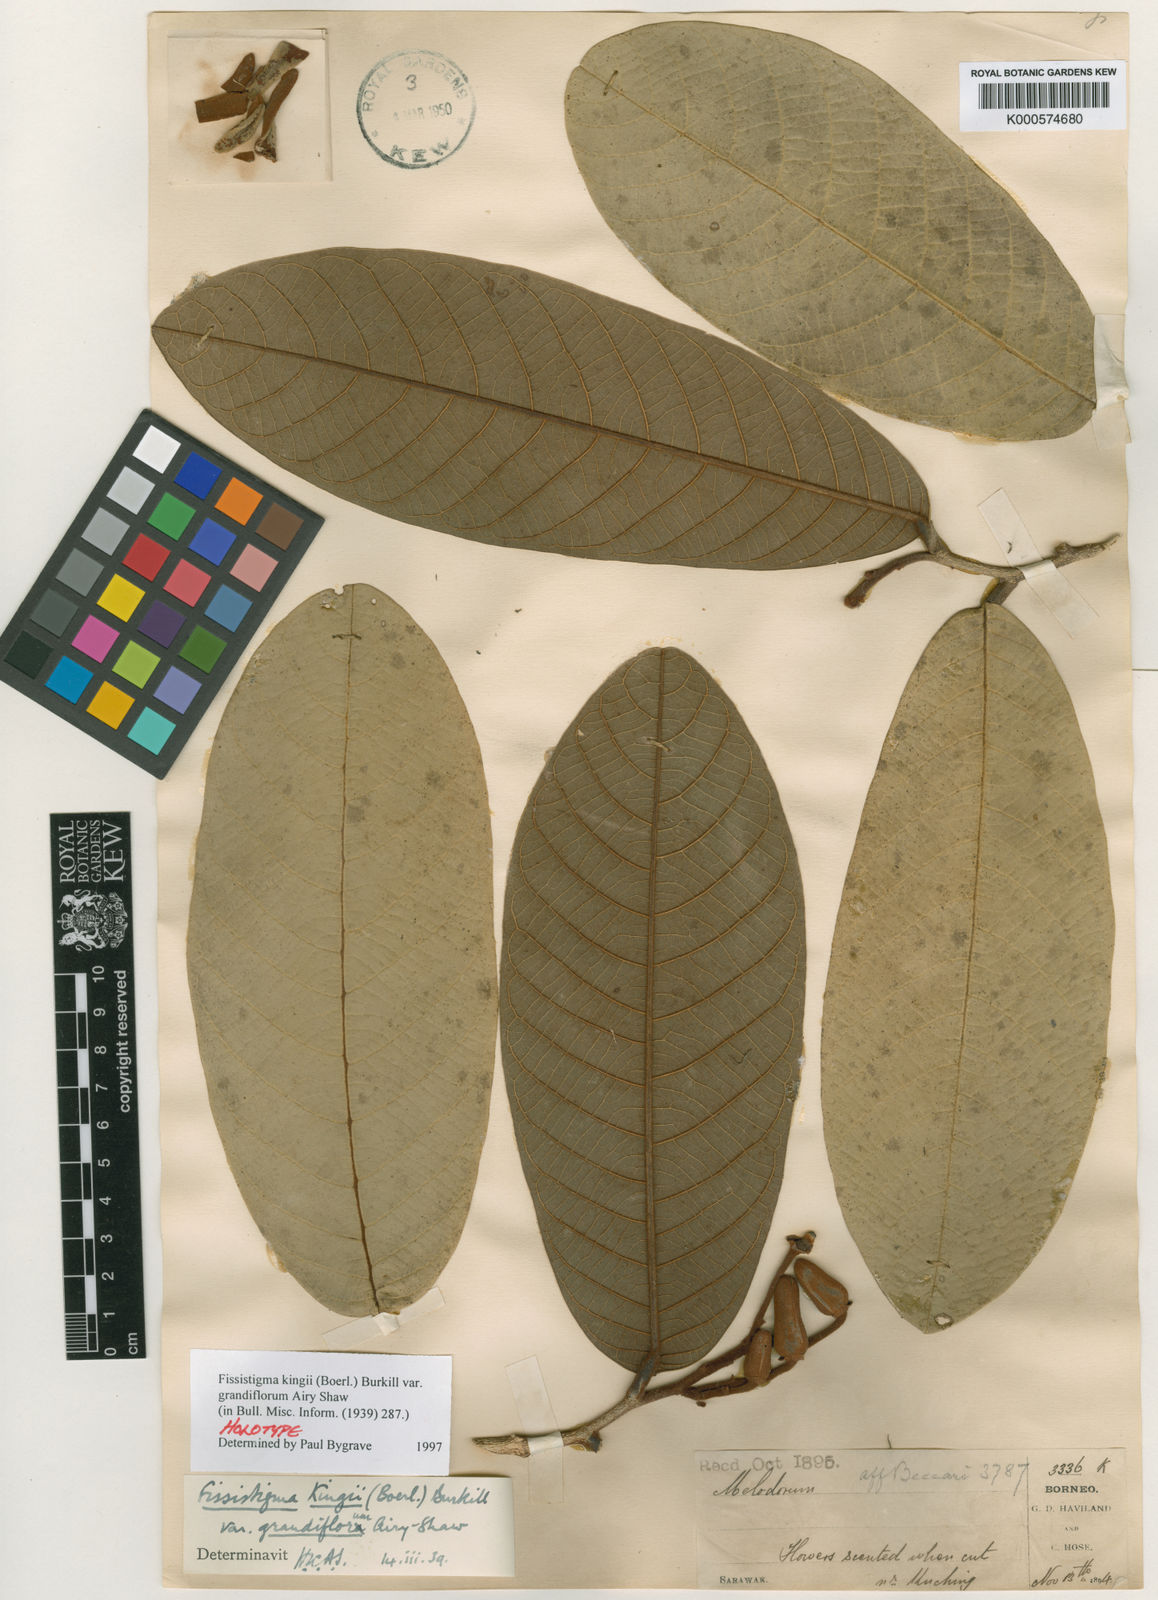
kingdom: Plantae
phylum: Tracheophyta
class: Magnoliopsida
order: Magnoliales
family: Annonaceae
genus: Fissistigma
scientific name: Fissistigma kingii
